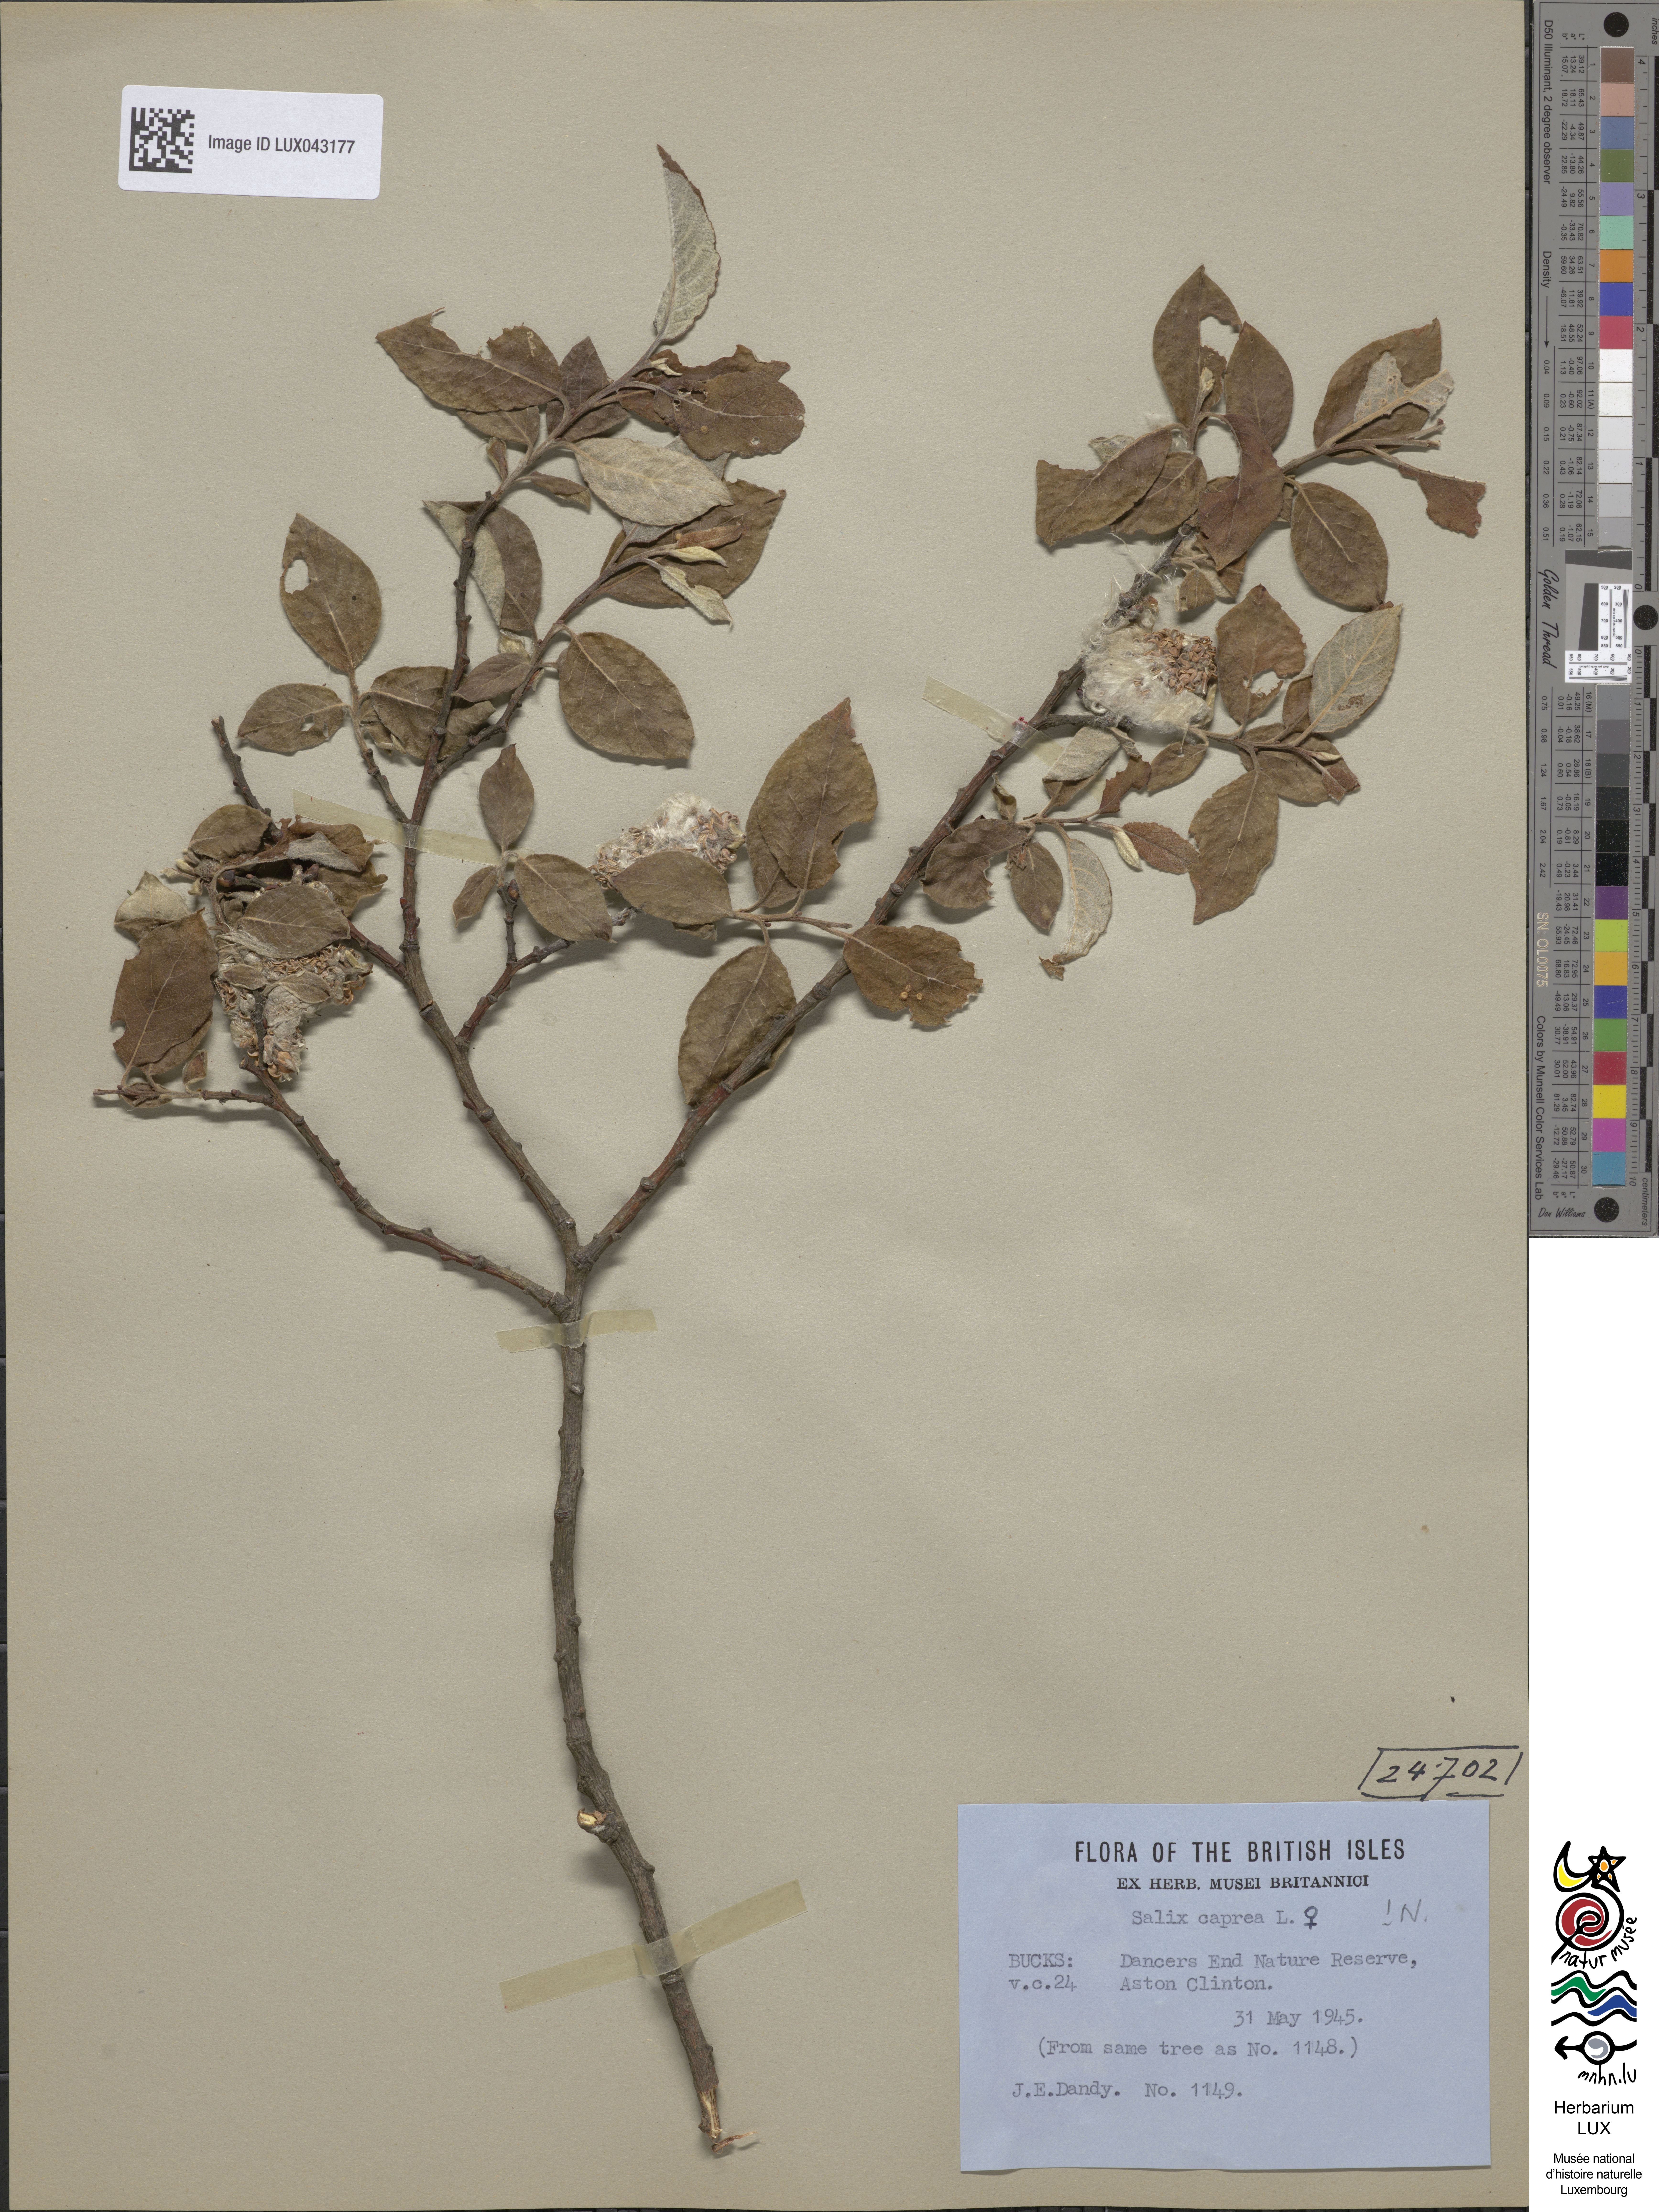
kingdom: Plantae
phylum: Tracheophyta
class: Magnoliopsida
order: Malpighiales
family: Salicaceae
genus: Salix
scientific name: Salix caprea
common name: Goat willow
